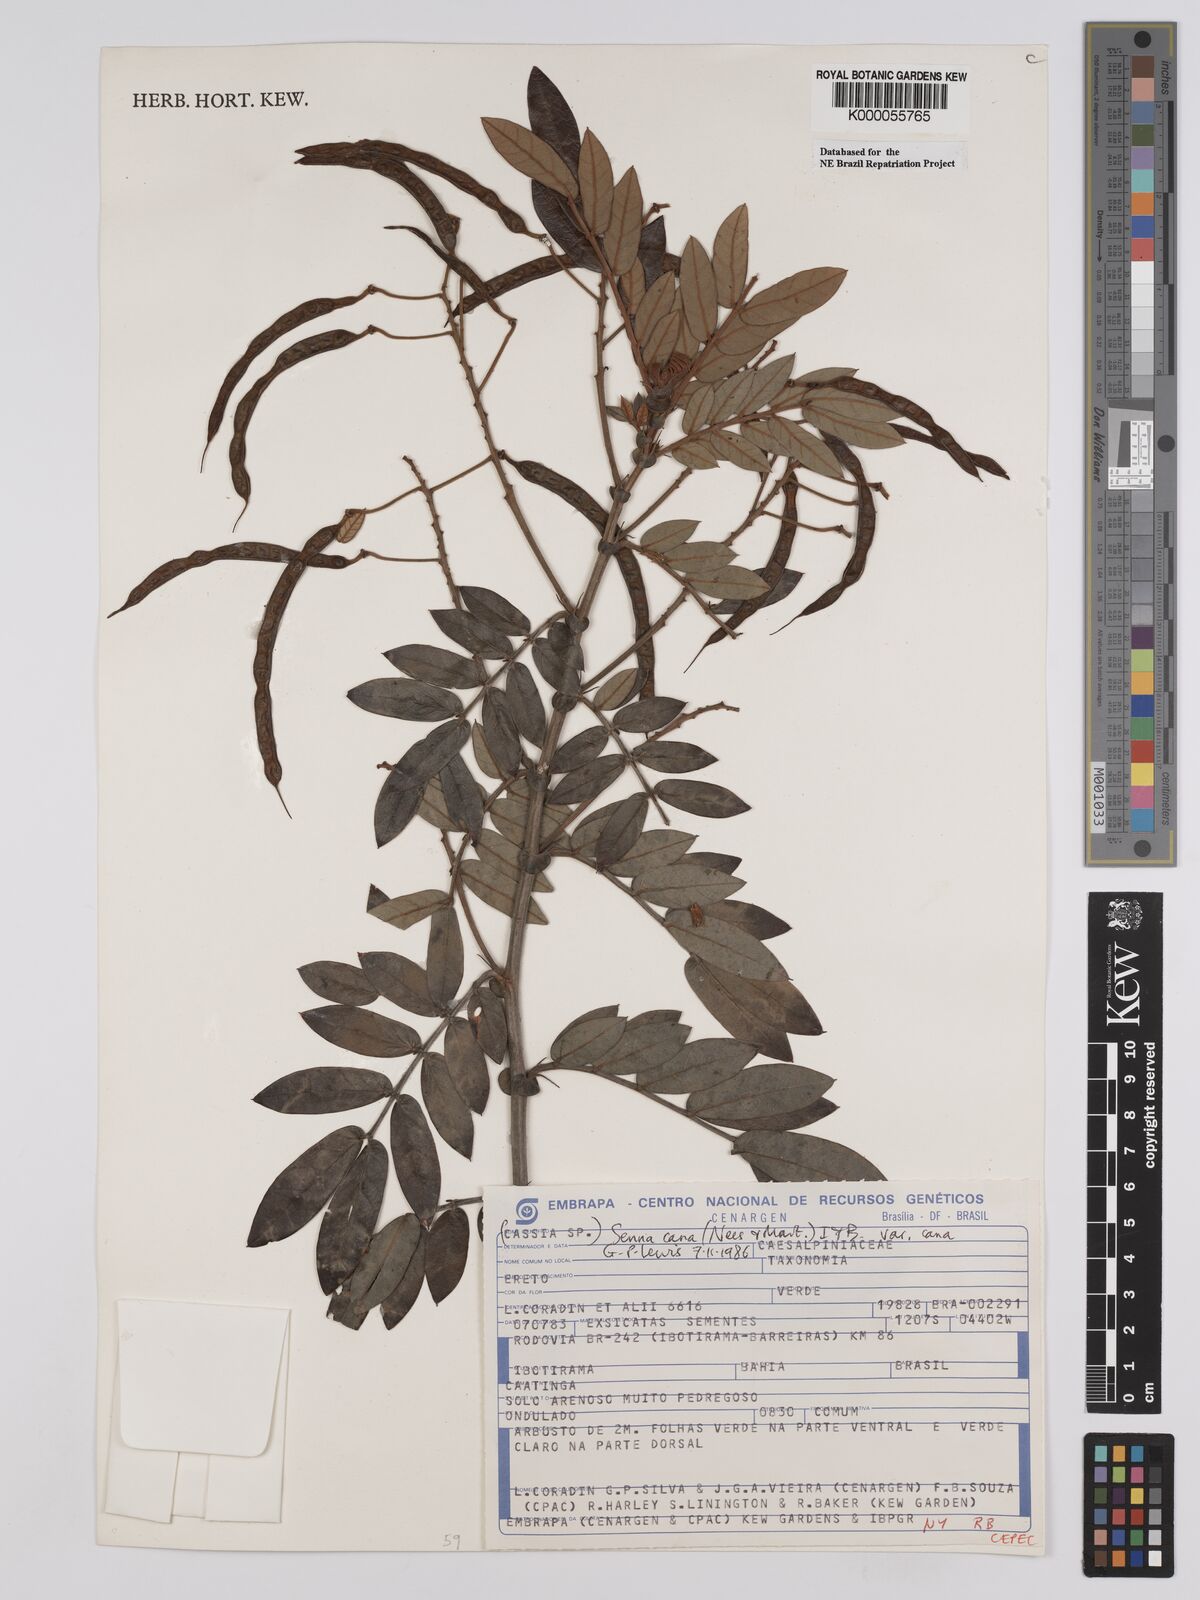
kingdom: Plantae
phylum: Tracheophyta
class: Magnoliopsida
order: Fabales
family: Fabaceae
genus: Senna
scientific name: Senna cana
